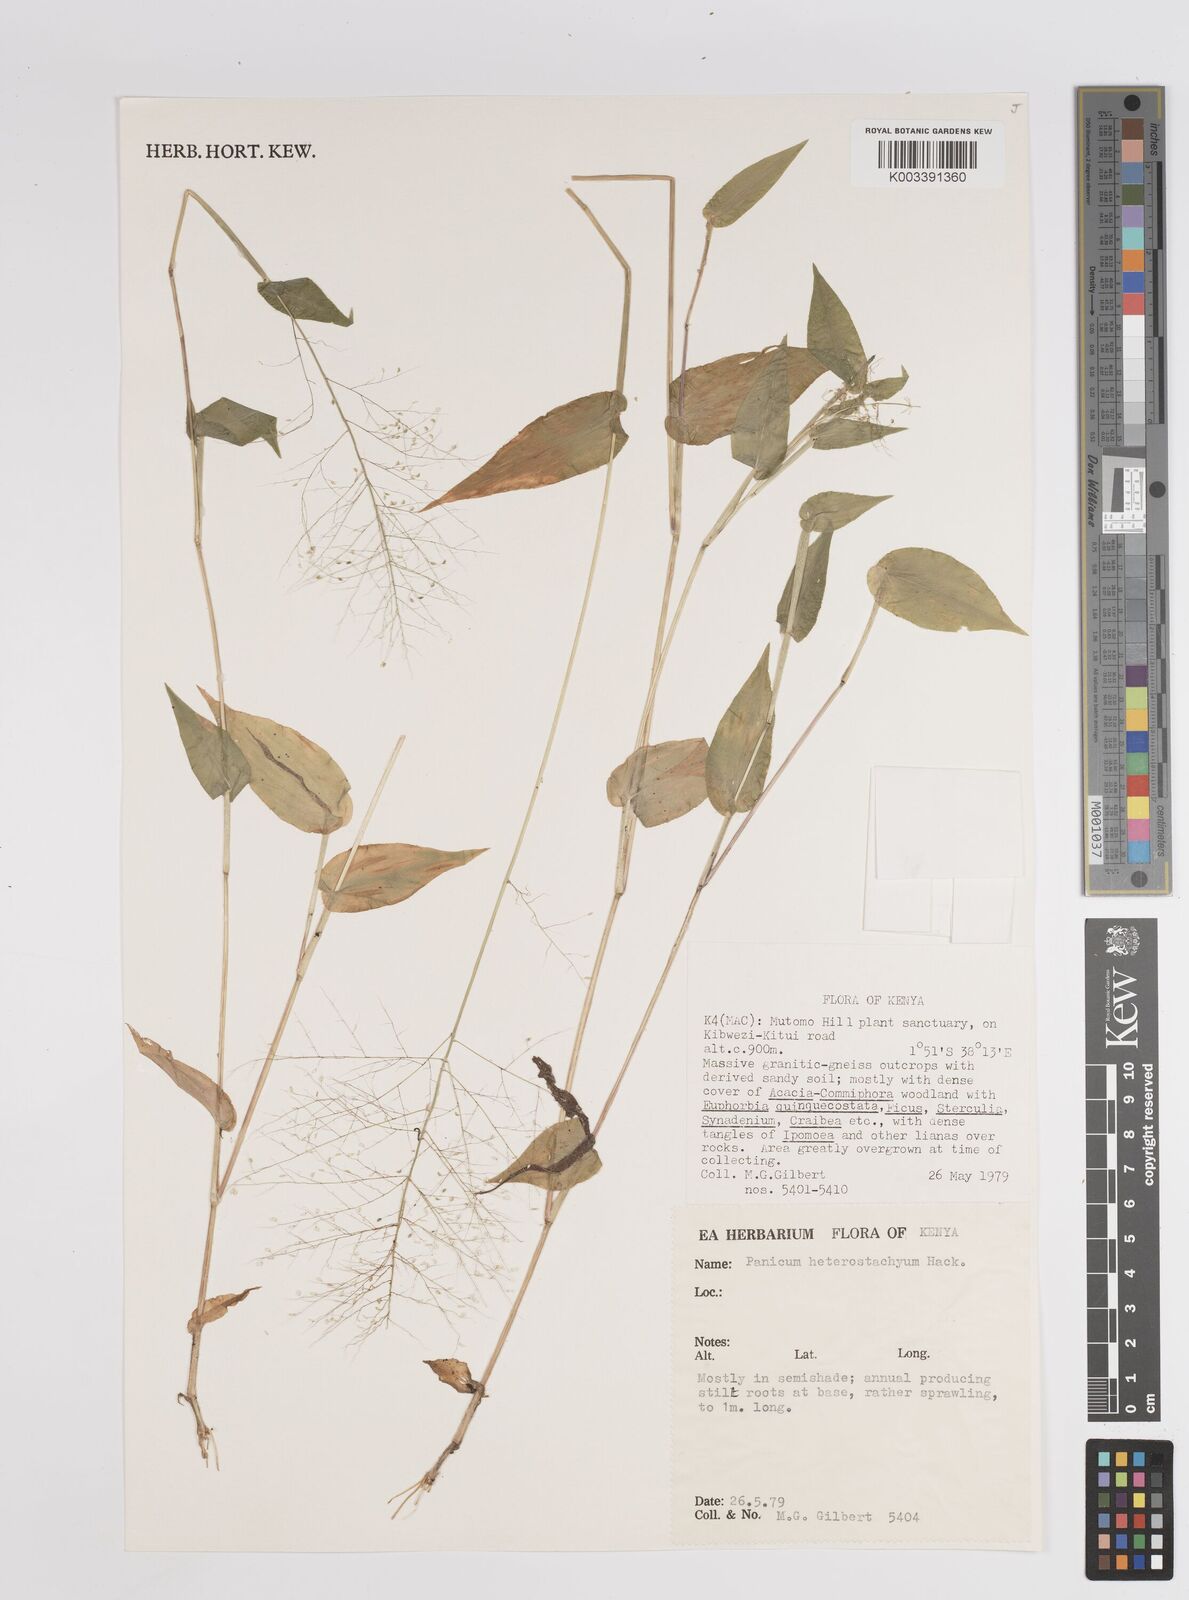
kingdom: Plantae
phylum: Tracheophyta
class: Liliopsida
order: Poales
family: Poaceae
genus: Panicum
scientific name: Panicum hirtum
